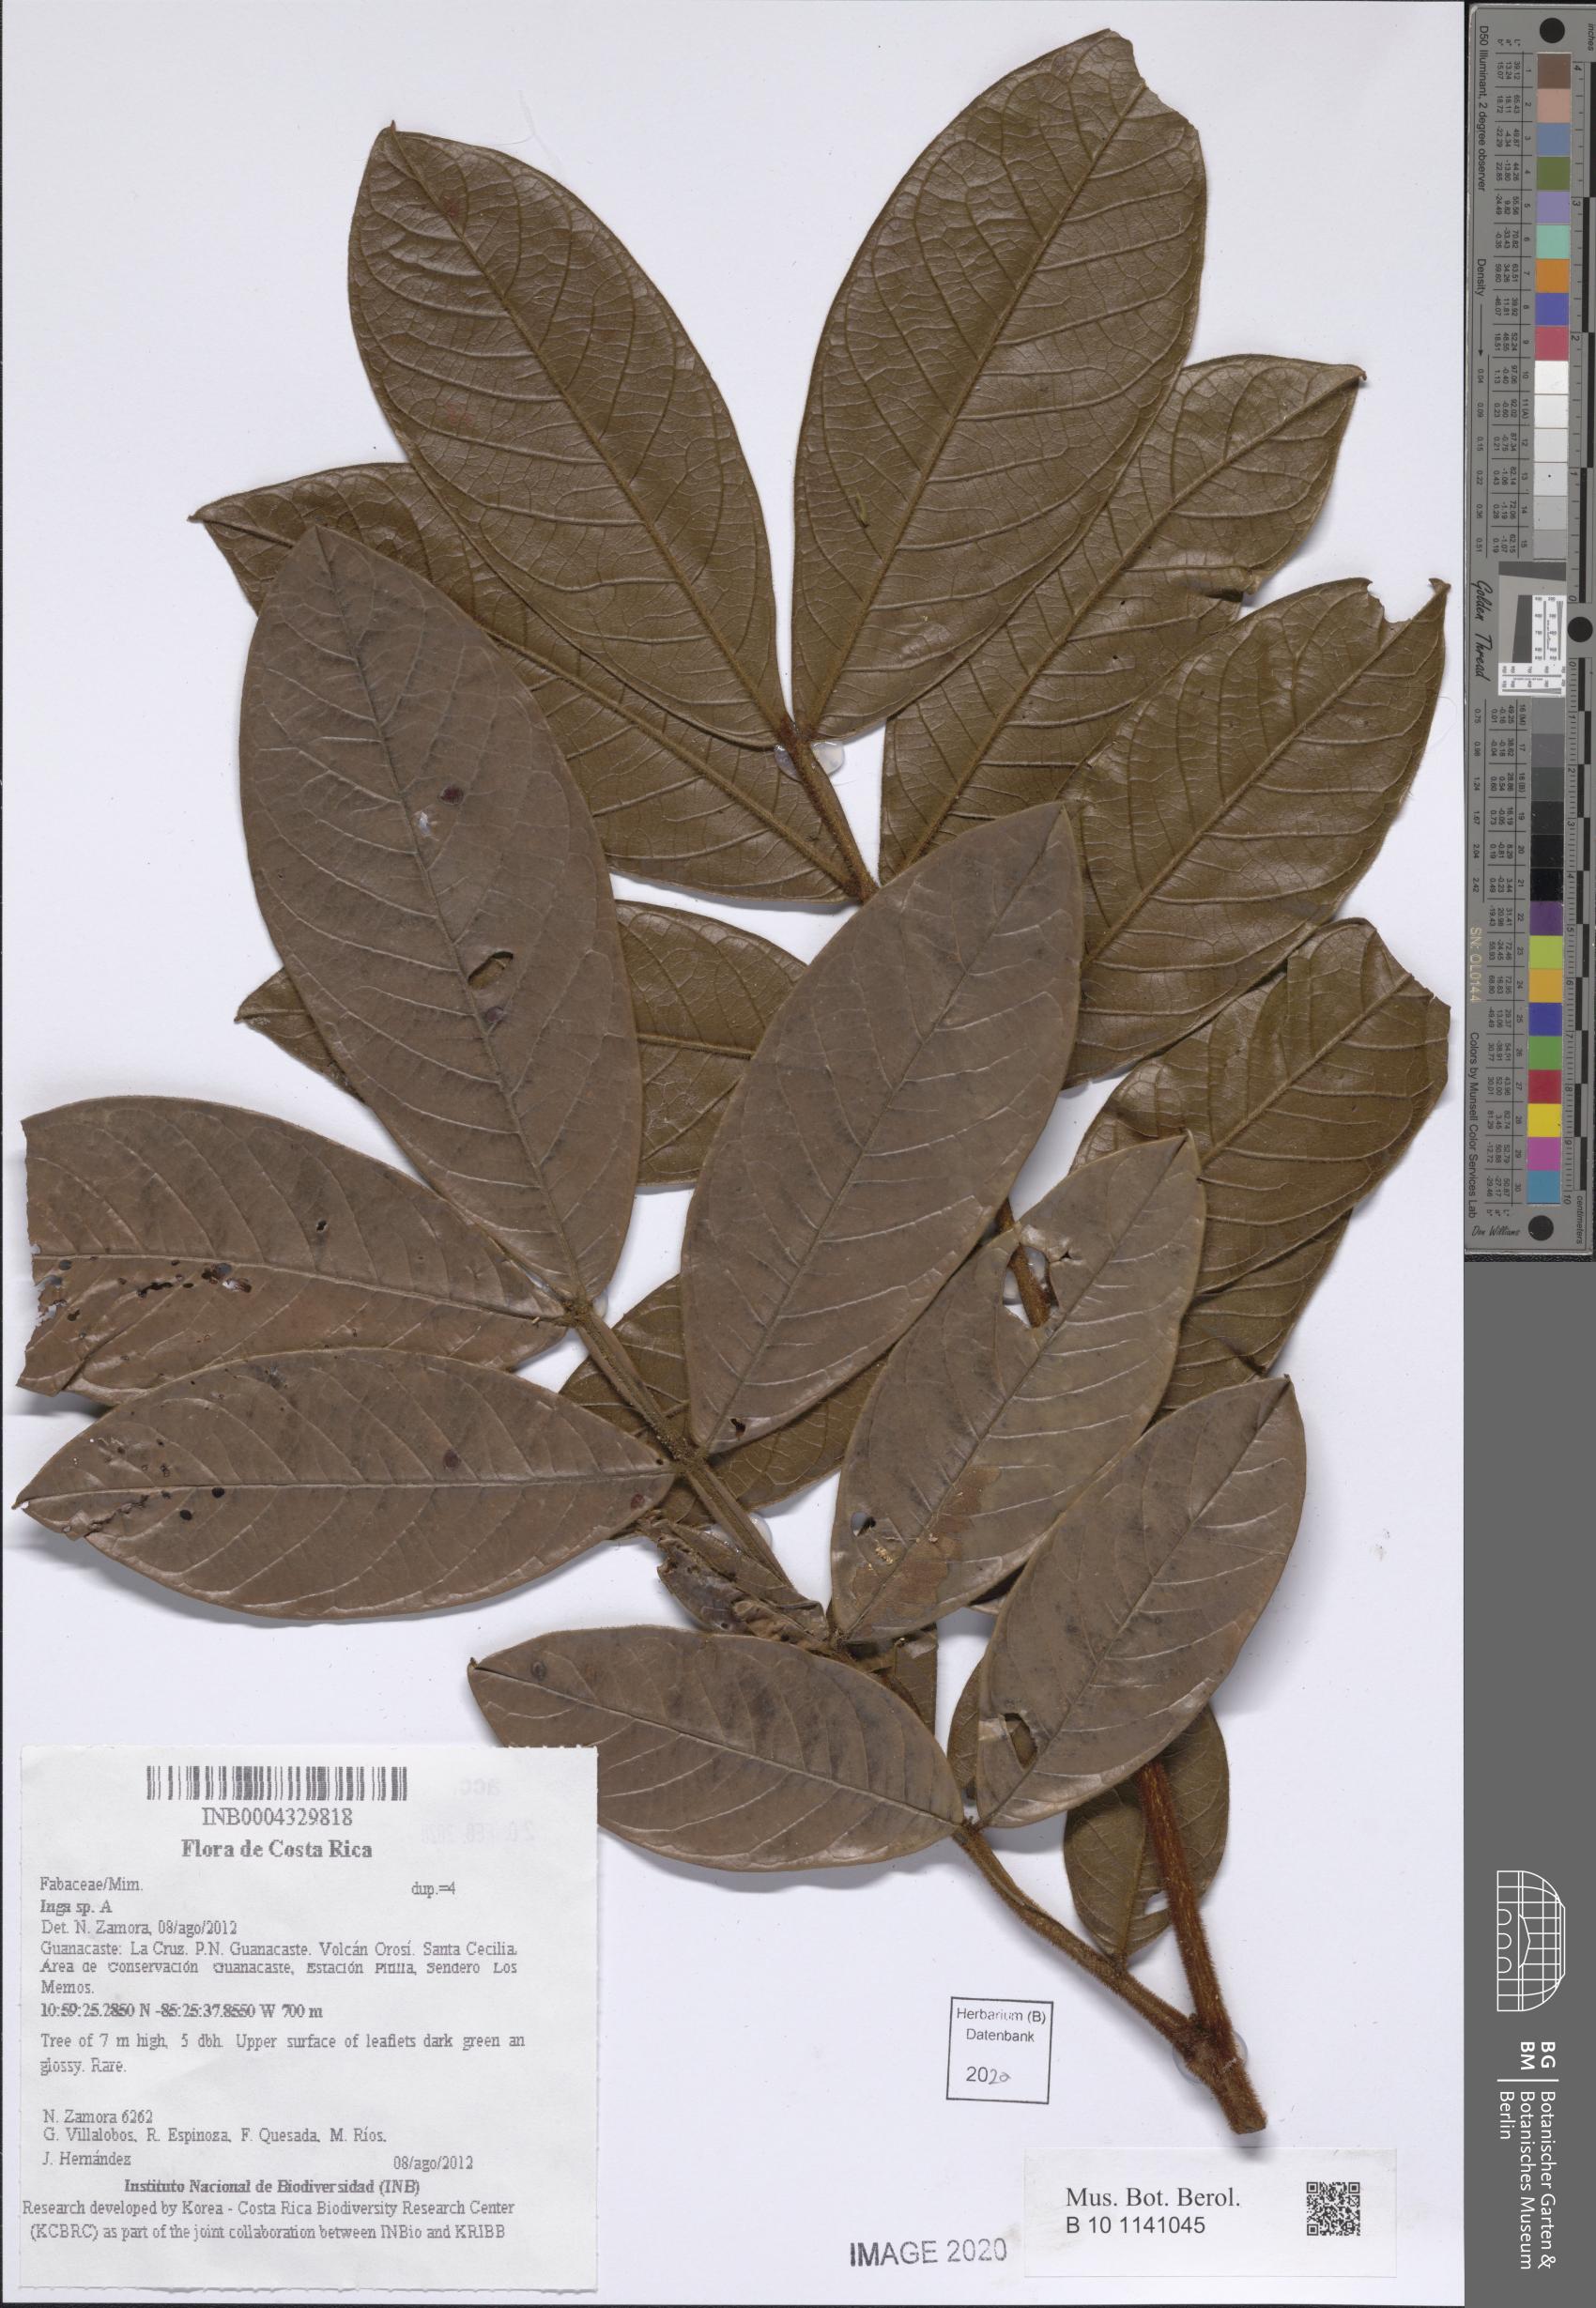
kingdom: Plantae
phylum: Tracheophyta
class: Magnoliopsida
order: Fabales
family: Fabaceae
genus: Inga
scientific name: Inga
